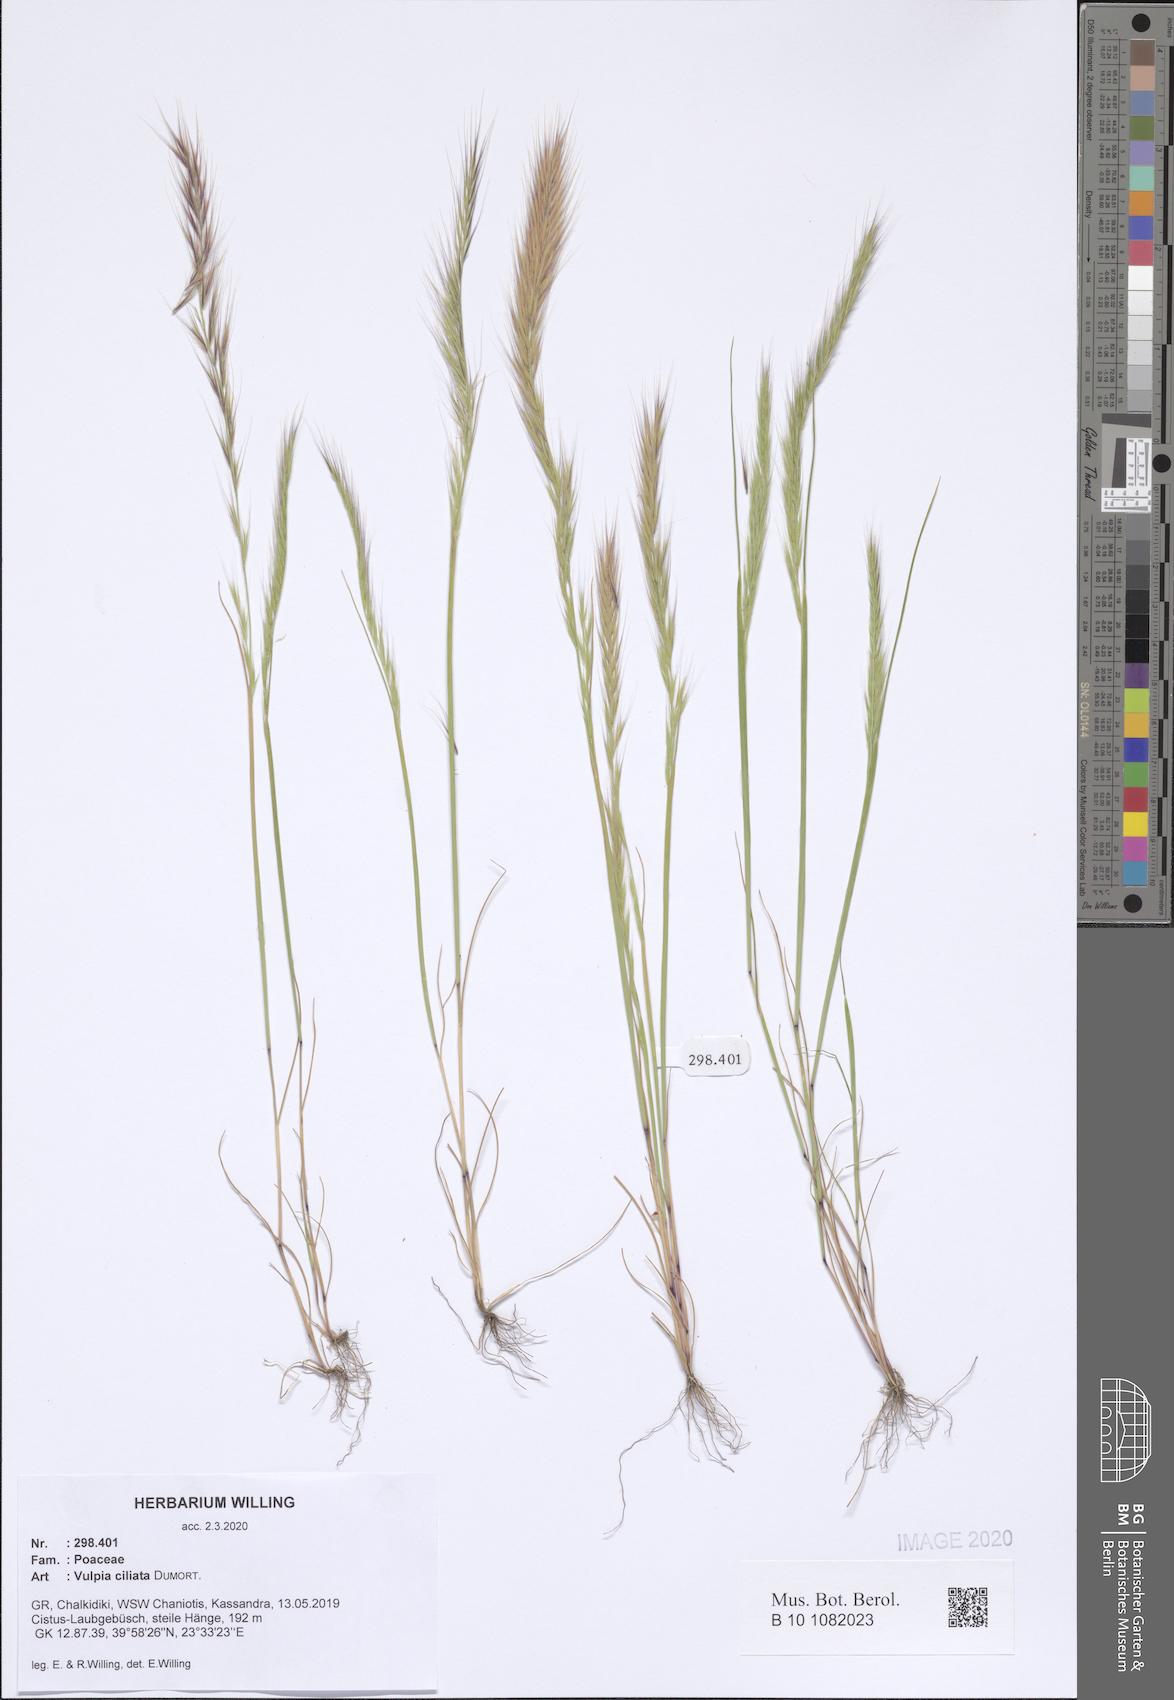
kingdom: Plantae
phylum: Tracheophyta
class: Liliopsida
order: Poales
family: Poaceae
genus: Festuca
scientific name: Festuca ambigua
